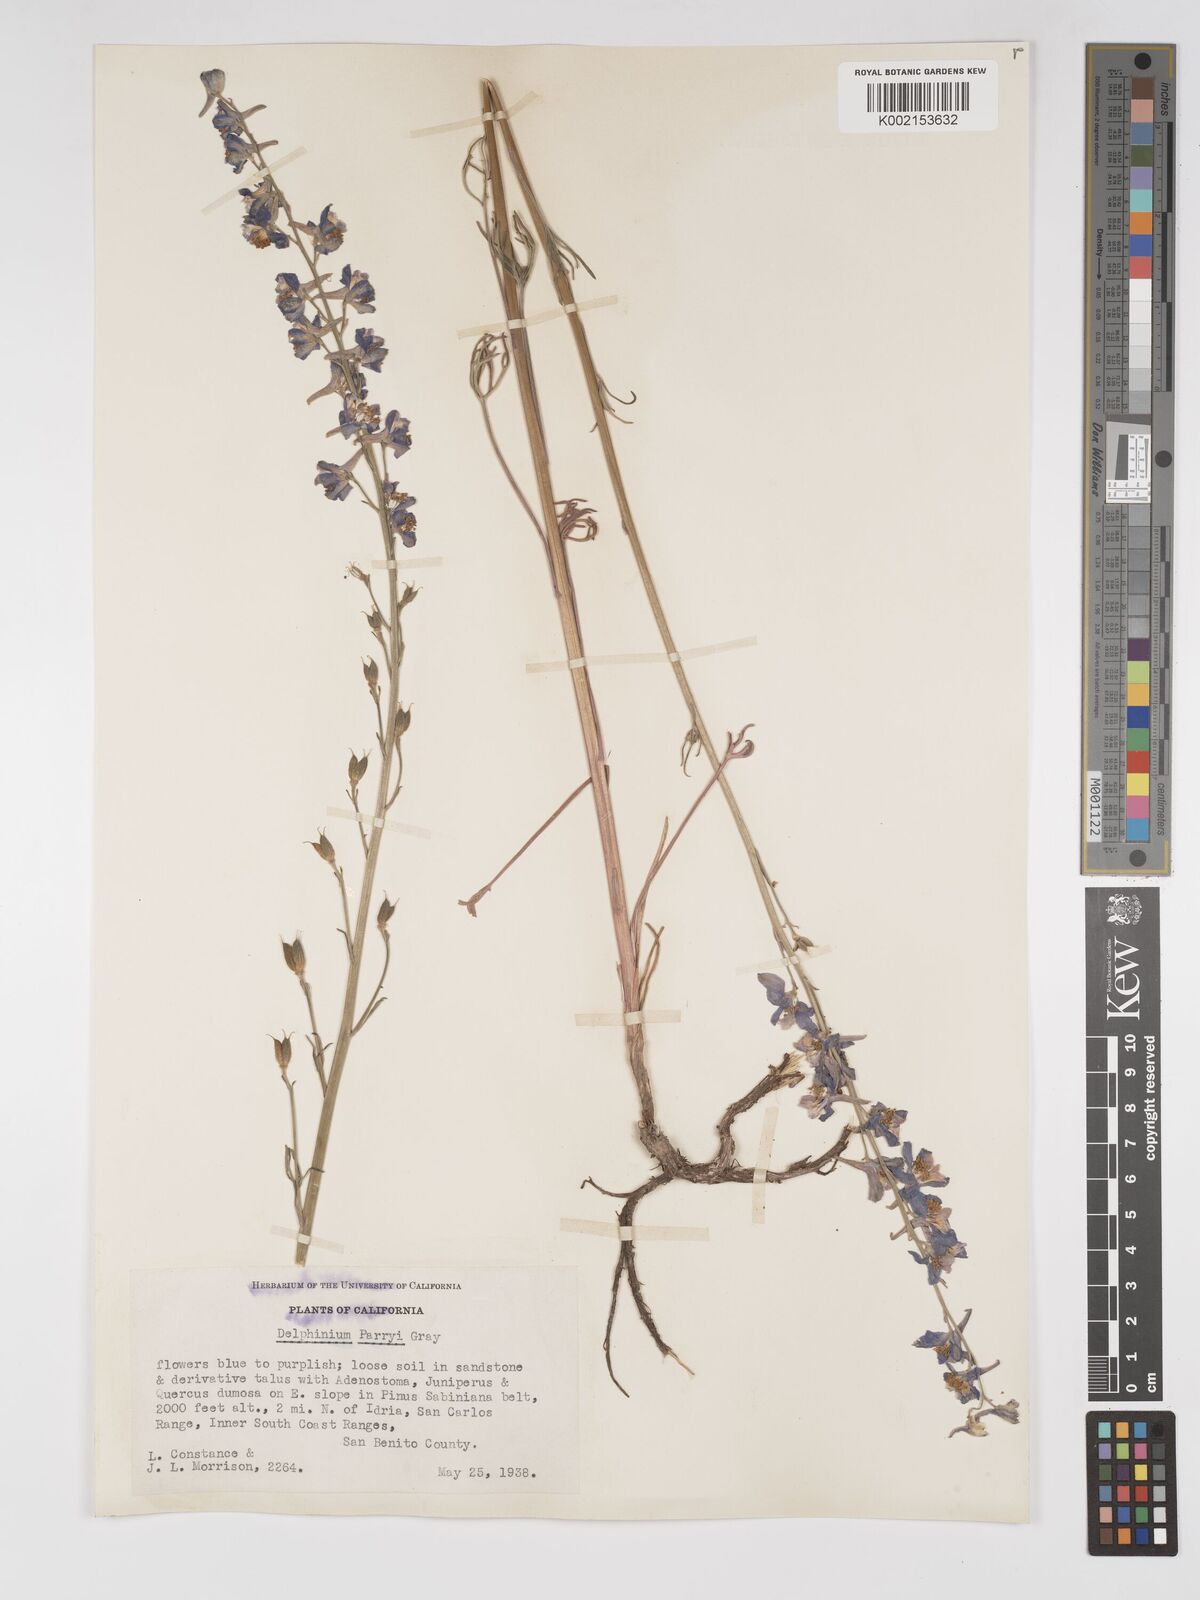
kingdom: Plantae
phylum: Tracheophyta
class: Magnoliopsida
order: Ranunculales
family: Ranunculaceae
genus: Delphinium
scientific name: Delphinium parryi
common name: Parry's larkspur
